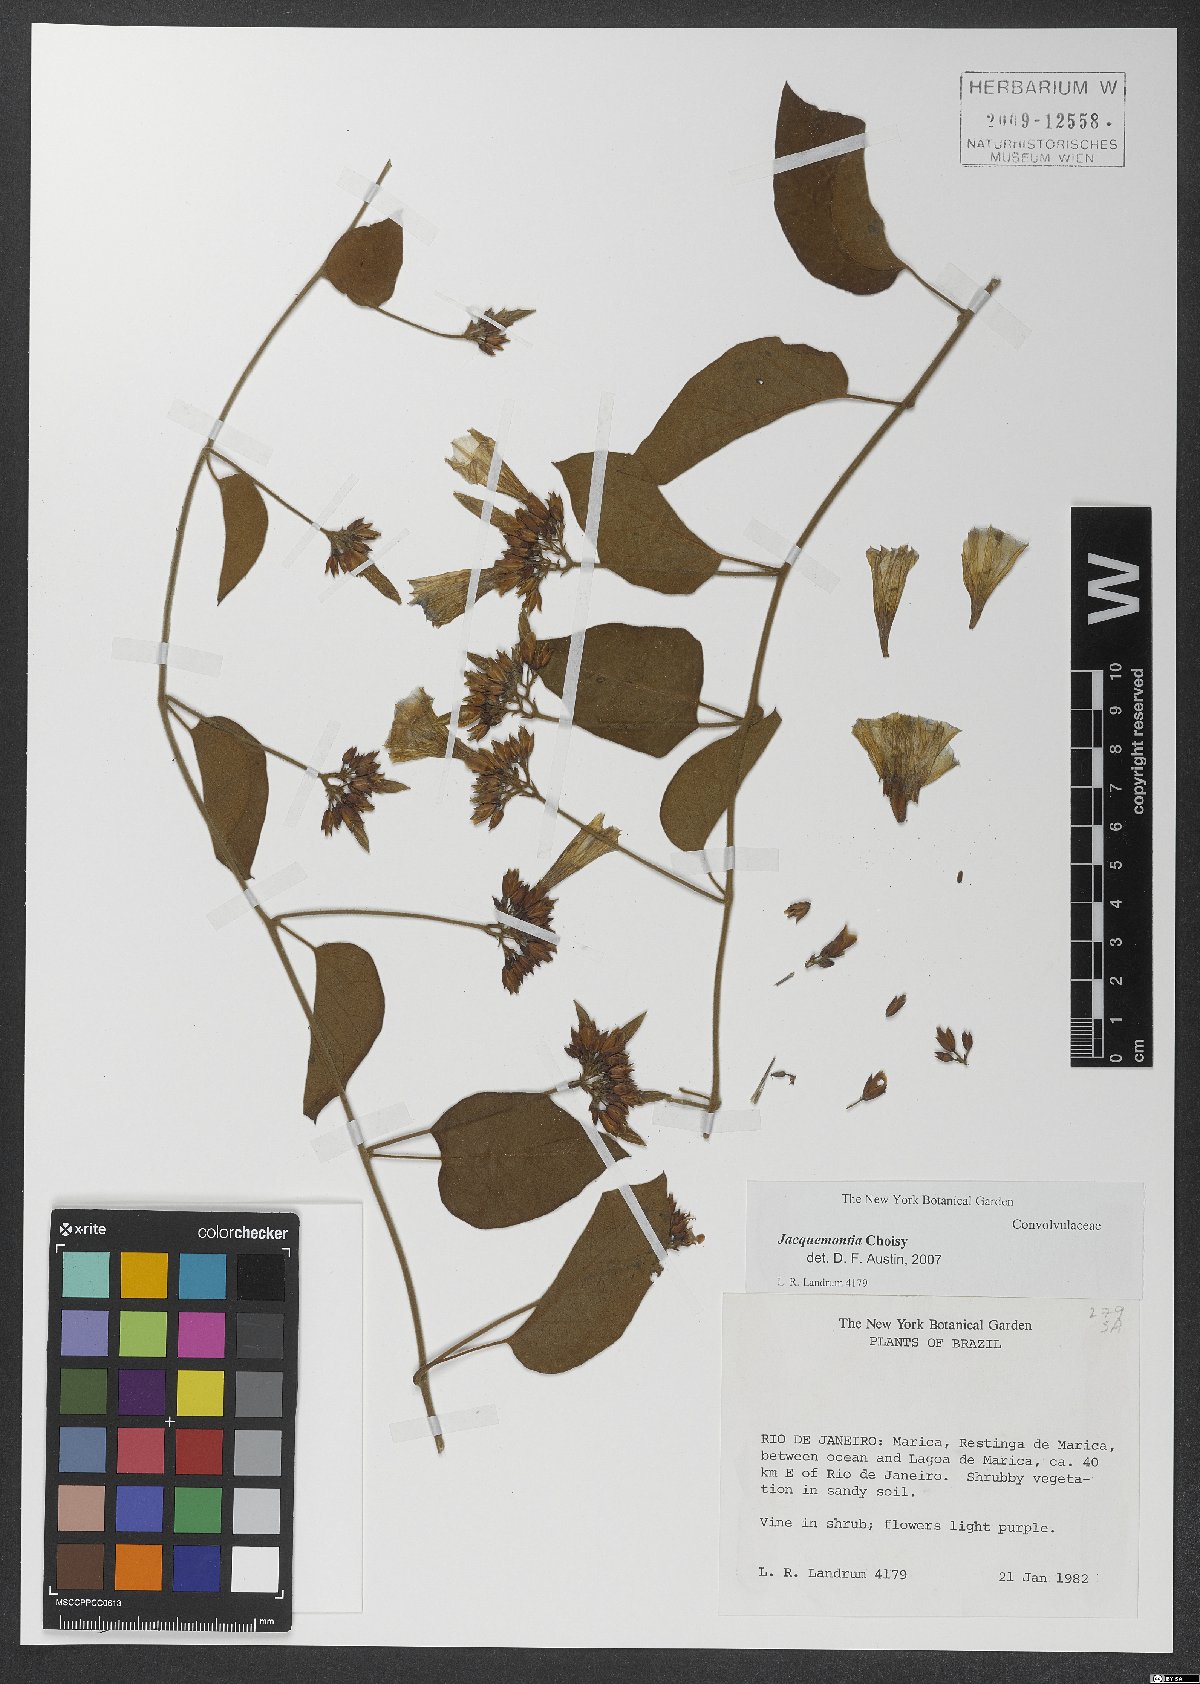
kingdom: Plantae
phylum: Tracheophyta
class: Magnoliopsida
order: Solanales
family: Convolvulaceae
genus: Jacquemontia
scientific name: Jacquemontia
